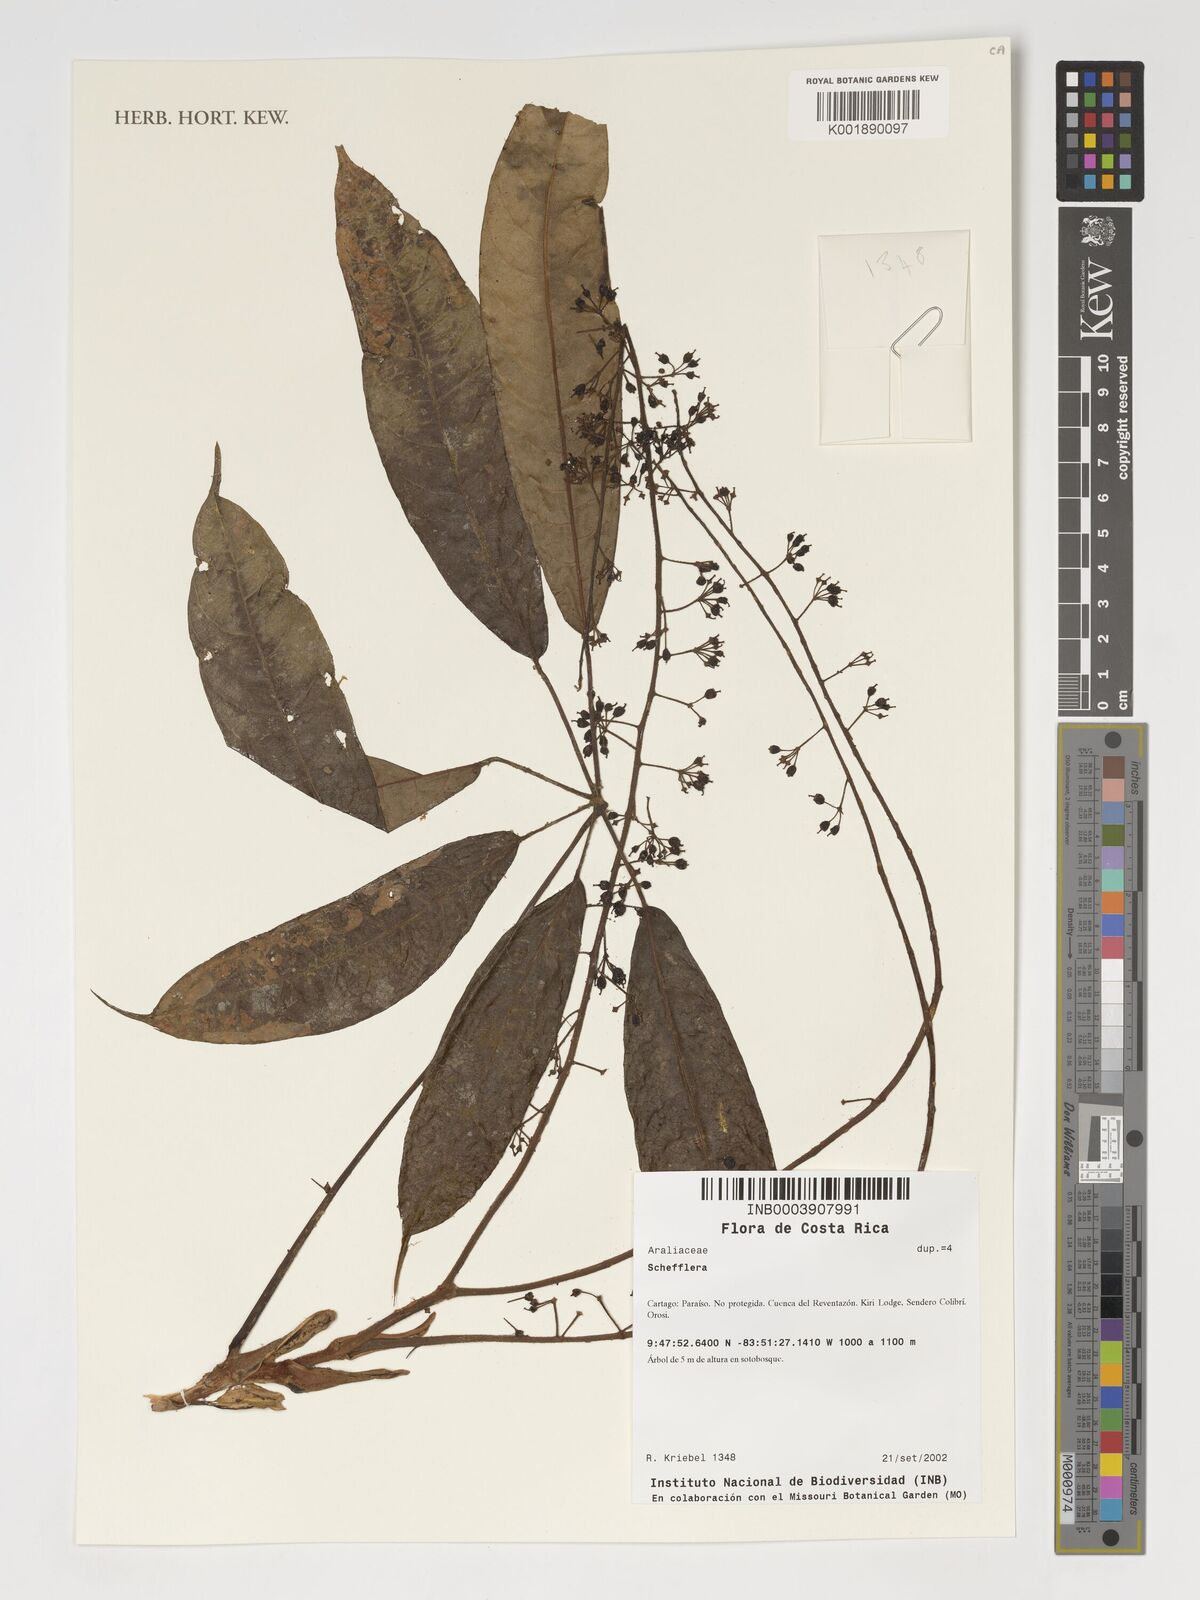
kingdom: Plantae
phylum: Tracheophyta
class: Magnoliopsida
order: Apiales
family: Araliaceae
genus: Schefflera
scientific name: Schefflera
